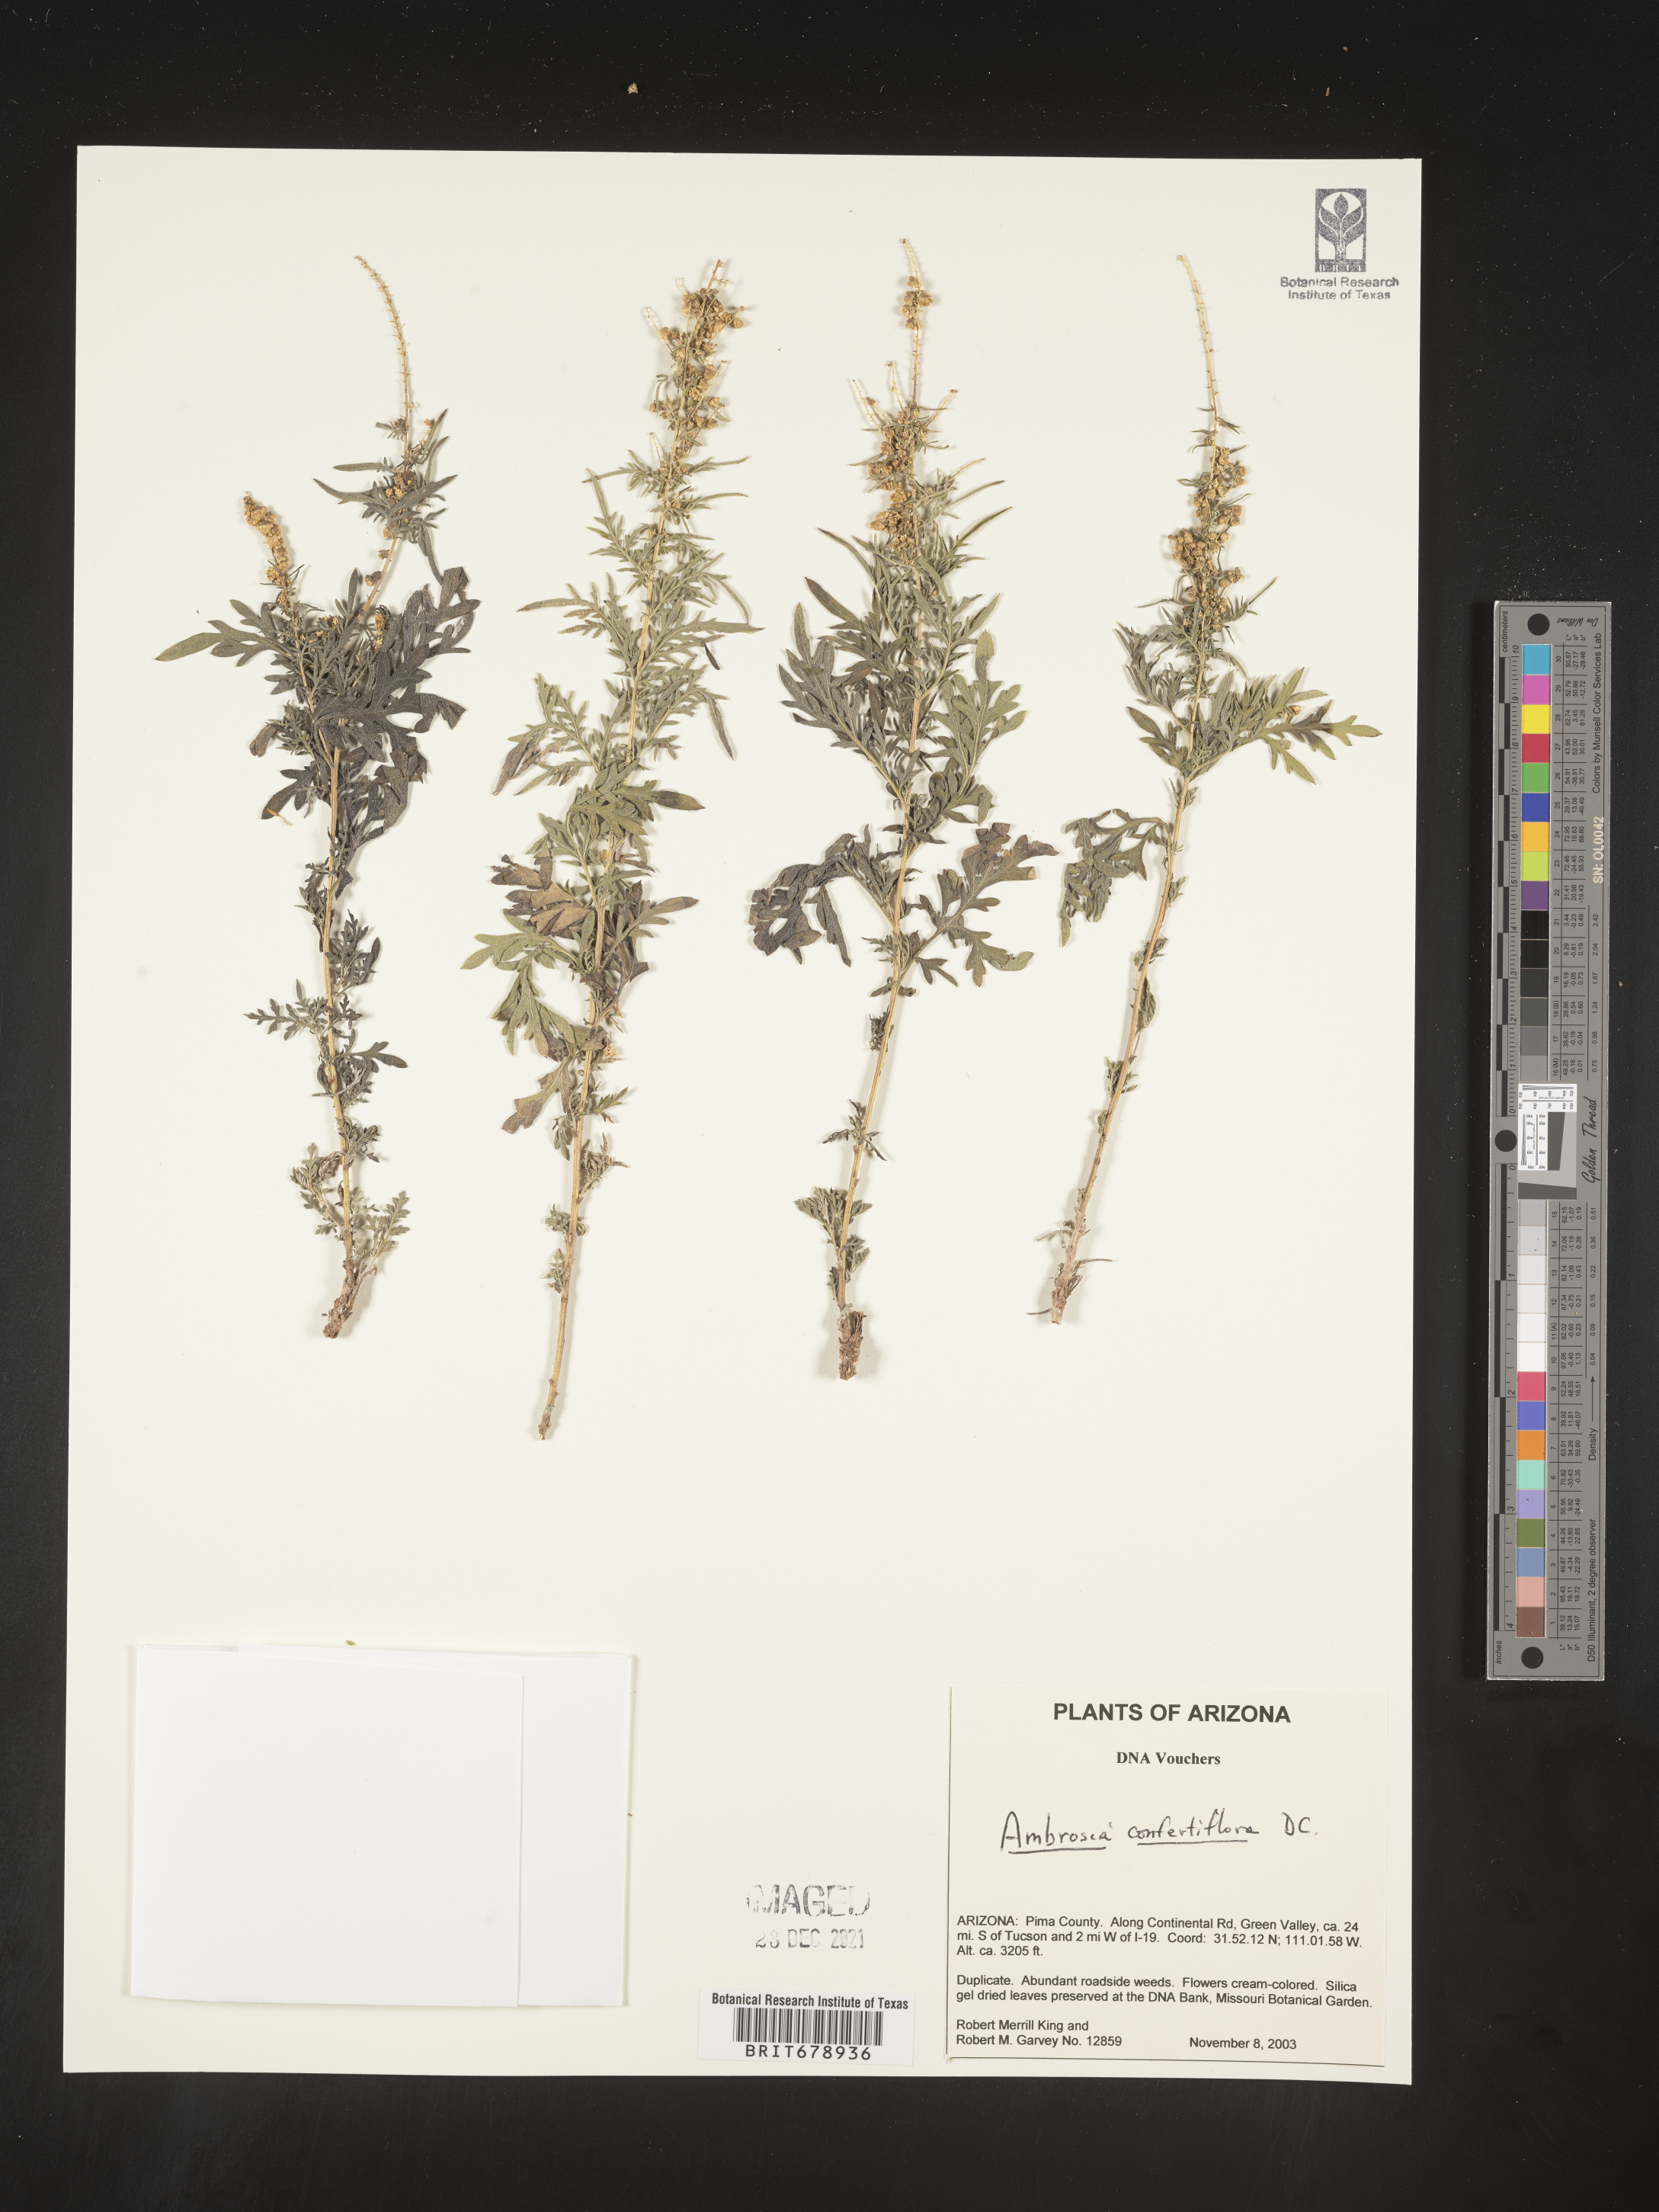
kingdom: Plantae
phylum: Tracheophyta
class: Magnoliopsida
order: Asterales
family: Asteraceae
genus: Ambrosia
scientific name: Ambrosia confertiflora
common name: Bur ragweed
